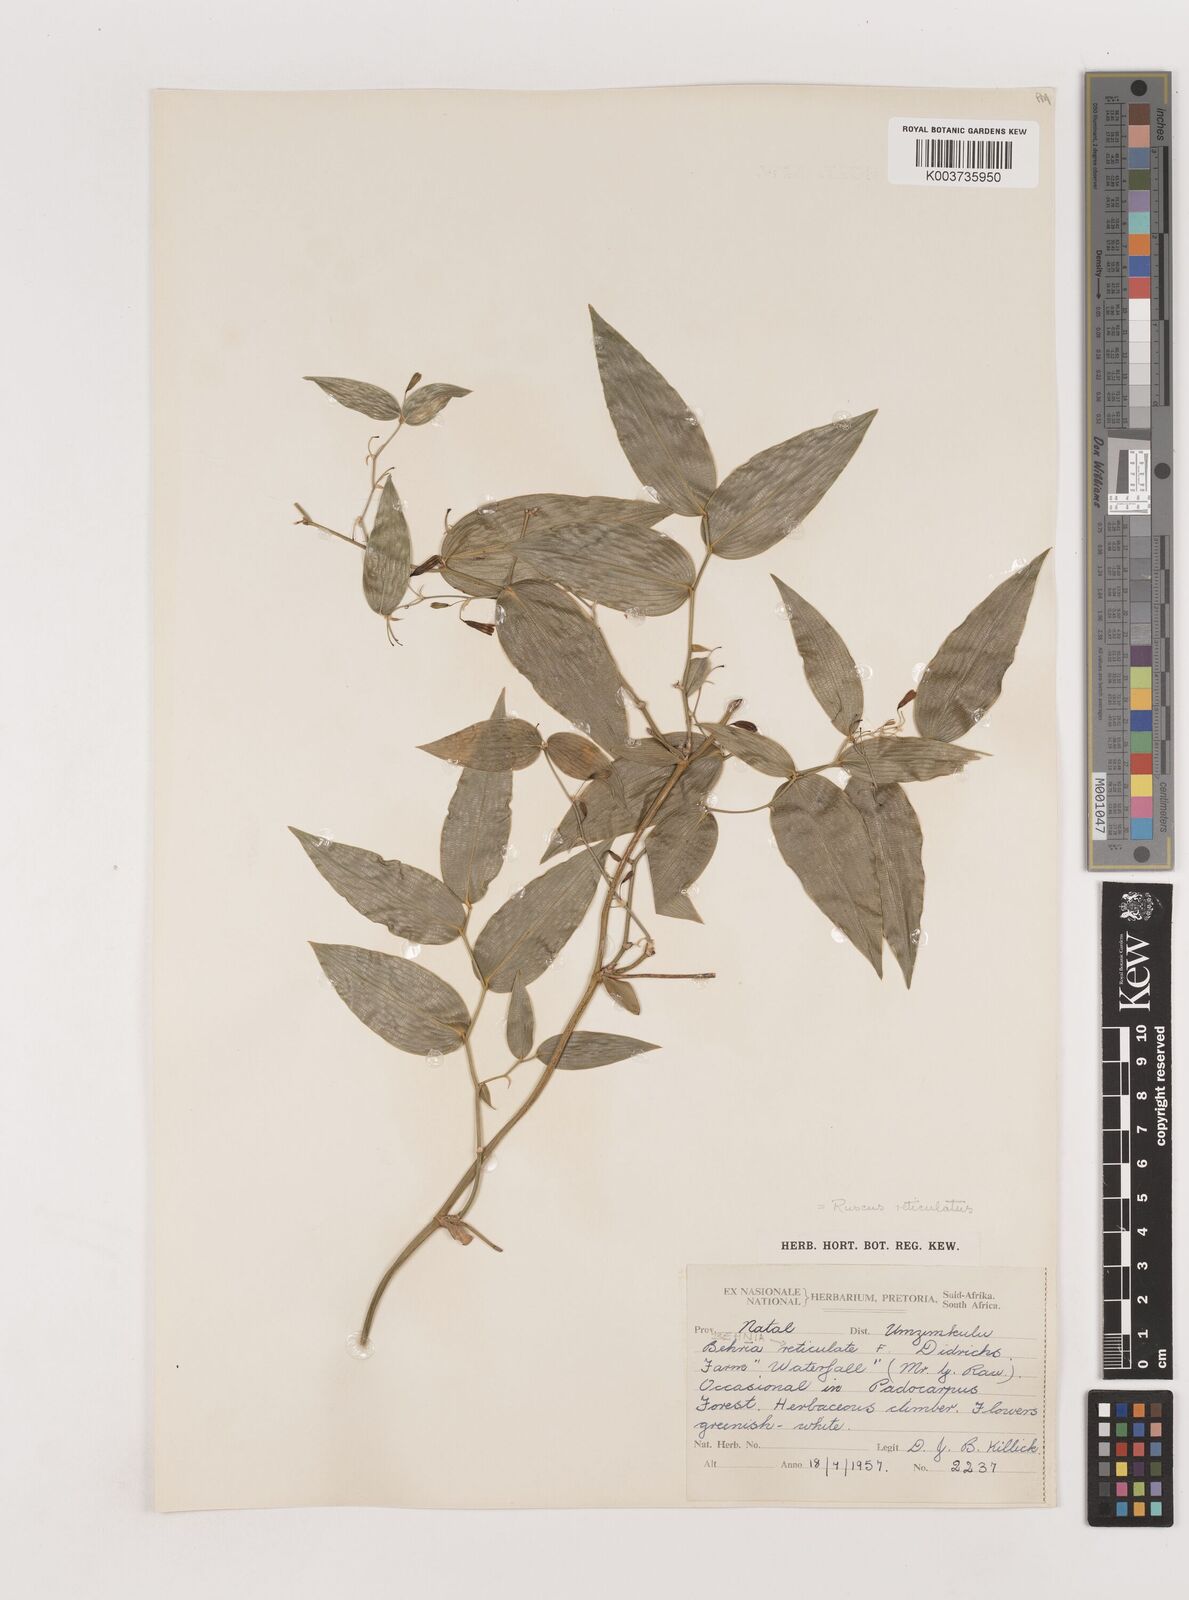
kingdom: Plantae
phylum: Tracheophyta
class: Liliopsida
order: Asparagales
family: Asparagaceae
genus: Behnia
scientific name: Behnia reticulata
